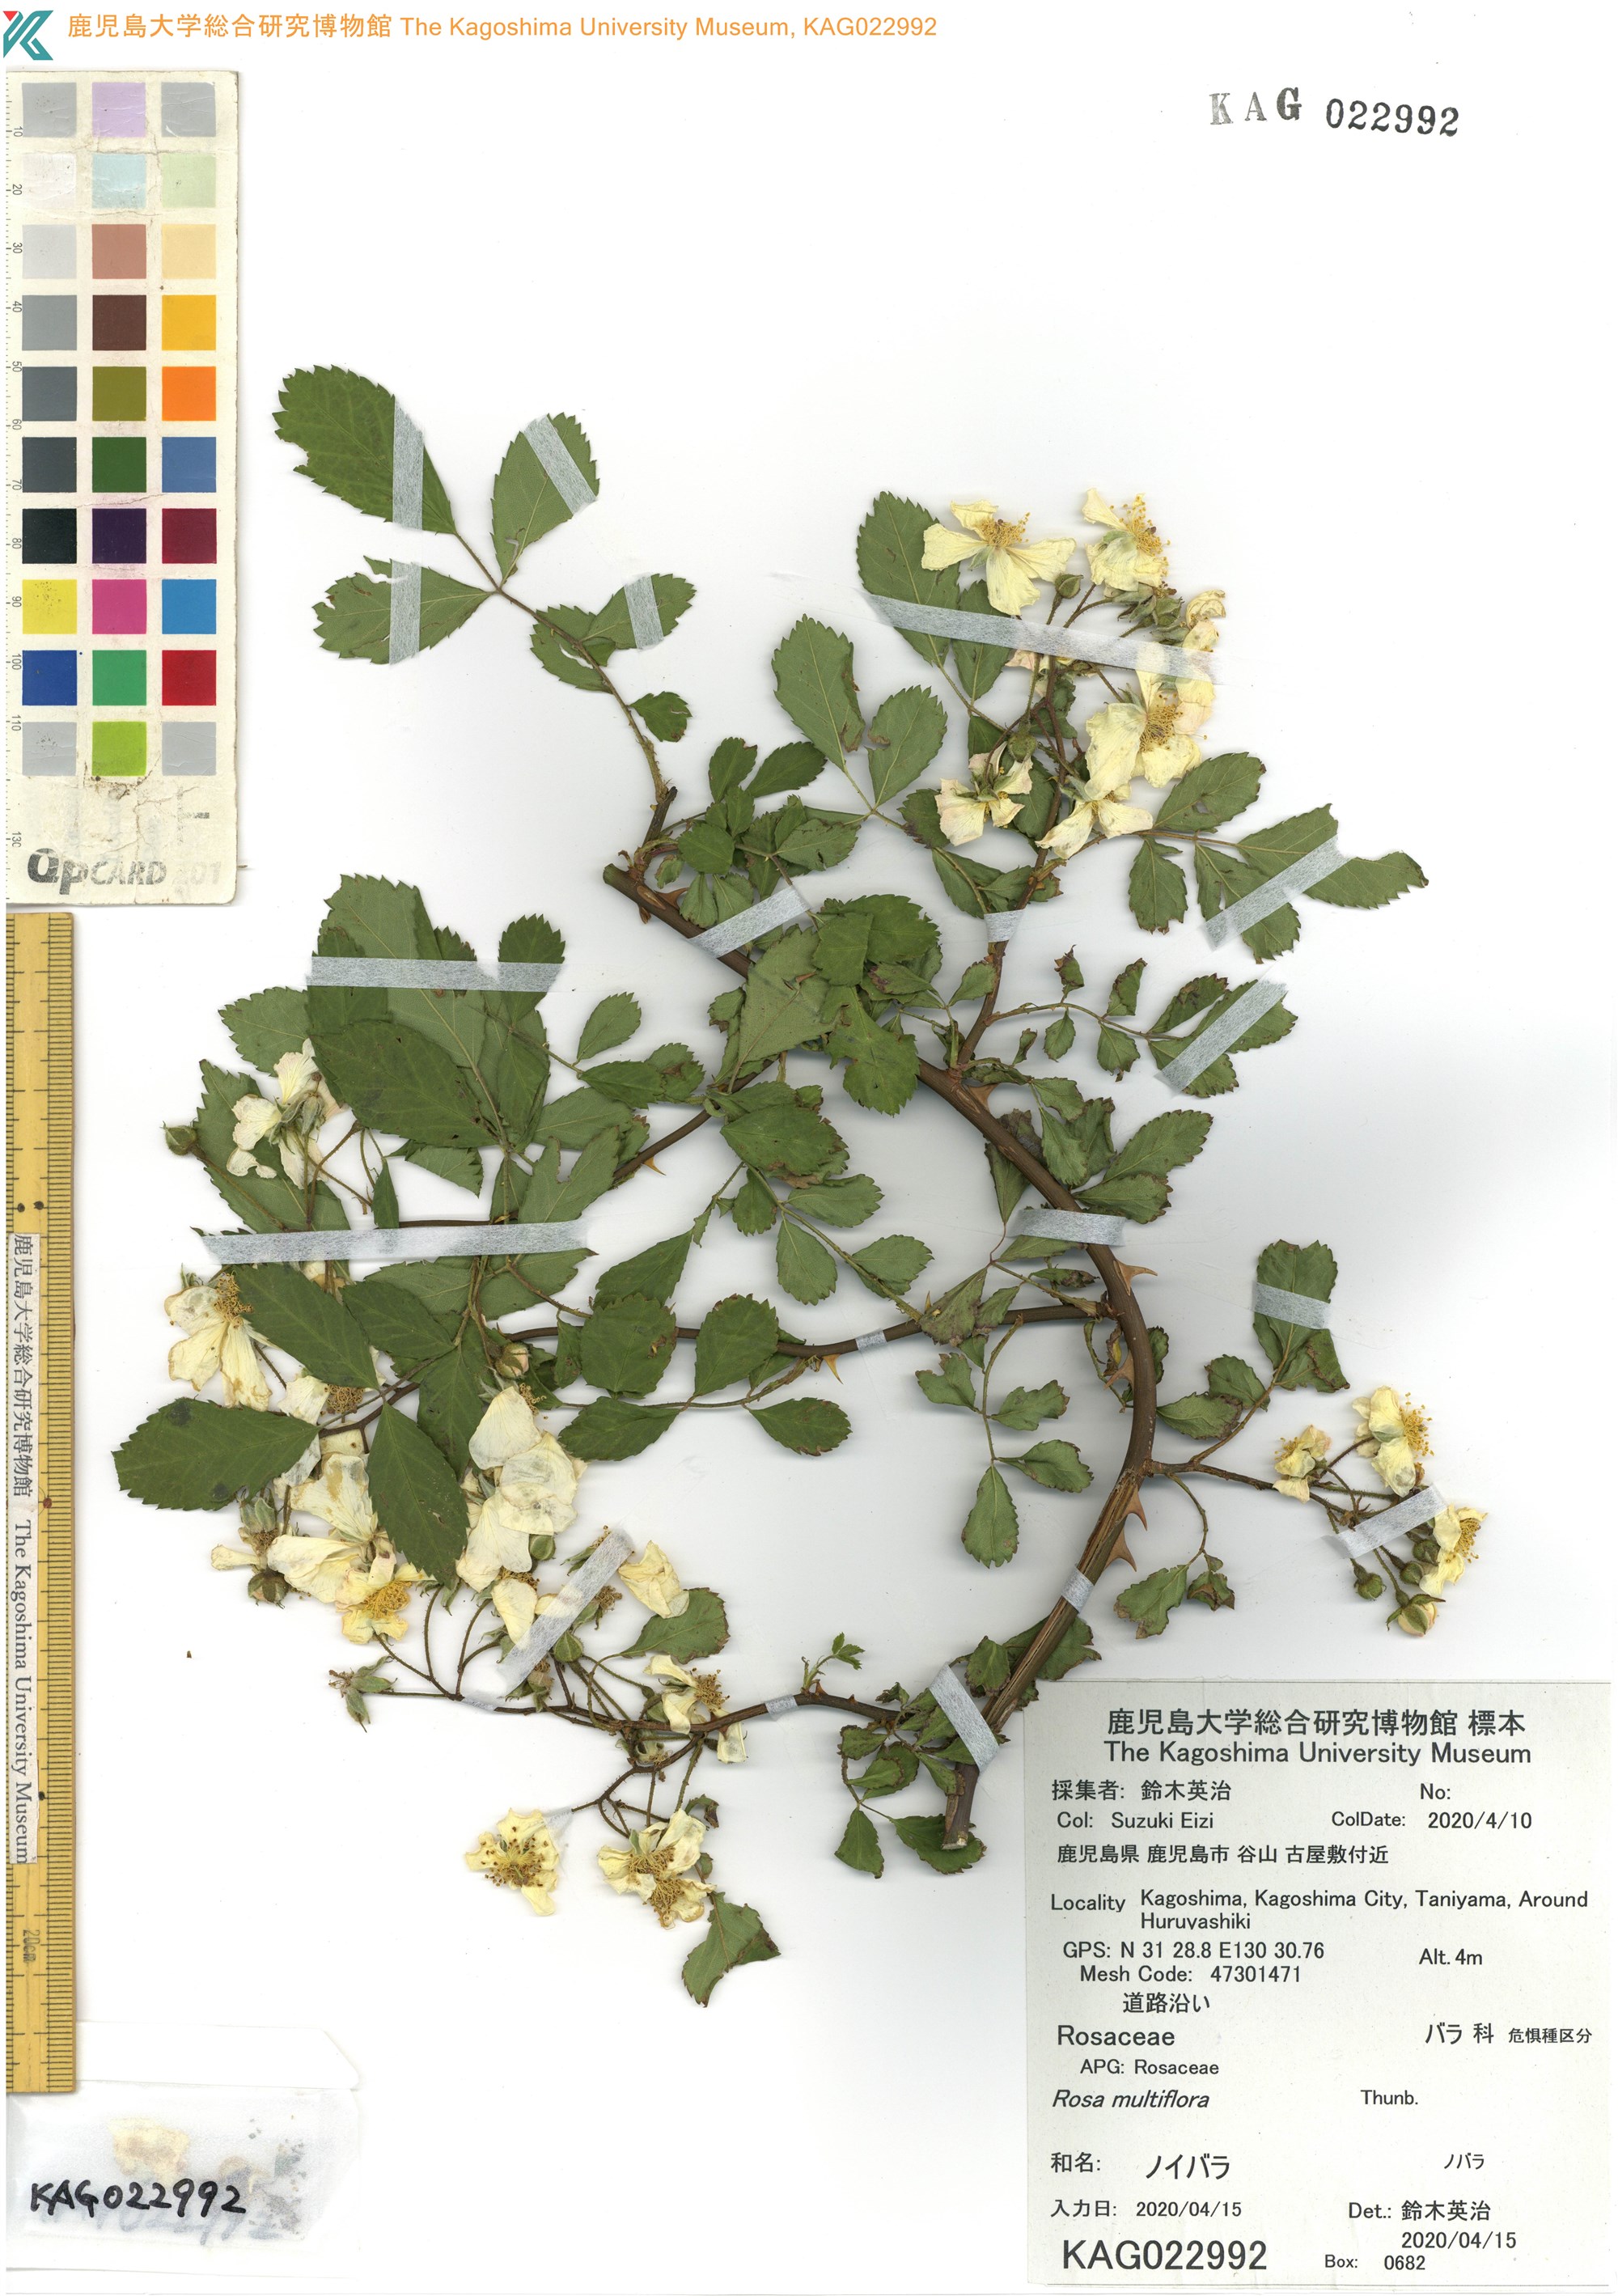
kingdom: Plantae
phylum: Tracheophyta
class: Magnoliopsida
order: Rosales
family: Rosaceae
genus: Rosa
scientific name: Rosa multiflora
